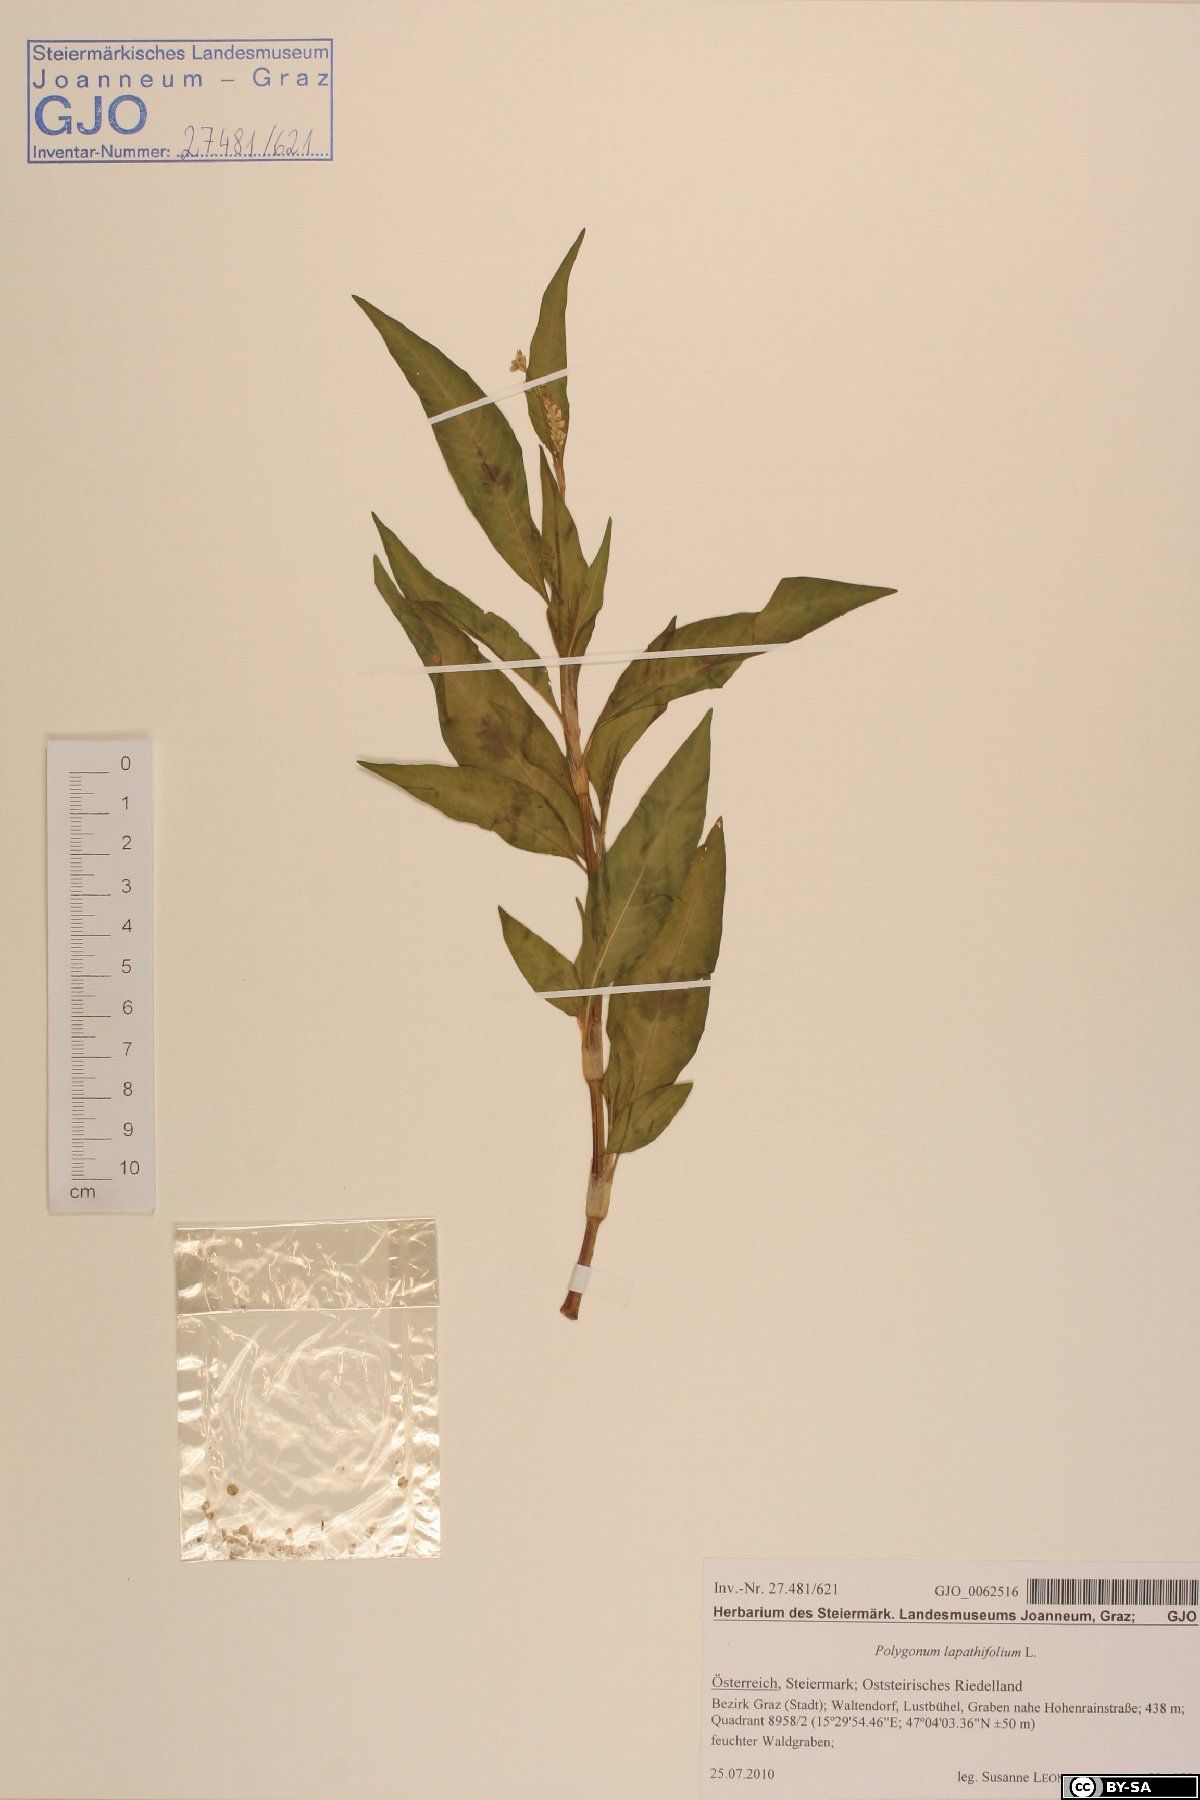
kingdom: Plantae
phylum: Tracheophyta
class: Magnoliopsida
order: Caryophyllales
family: Polygonaceae
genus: Persicaria
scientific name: Persicaria lapathifolia
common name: Curlytop knotweed
